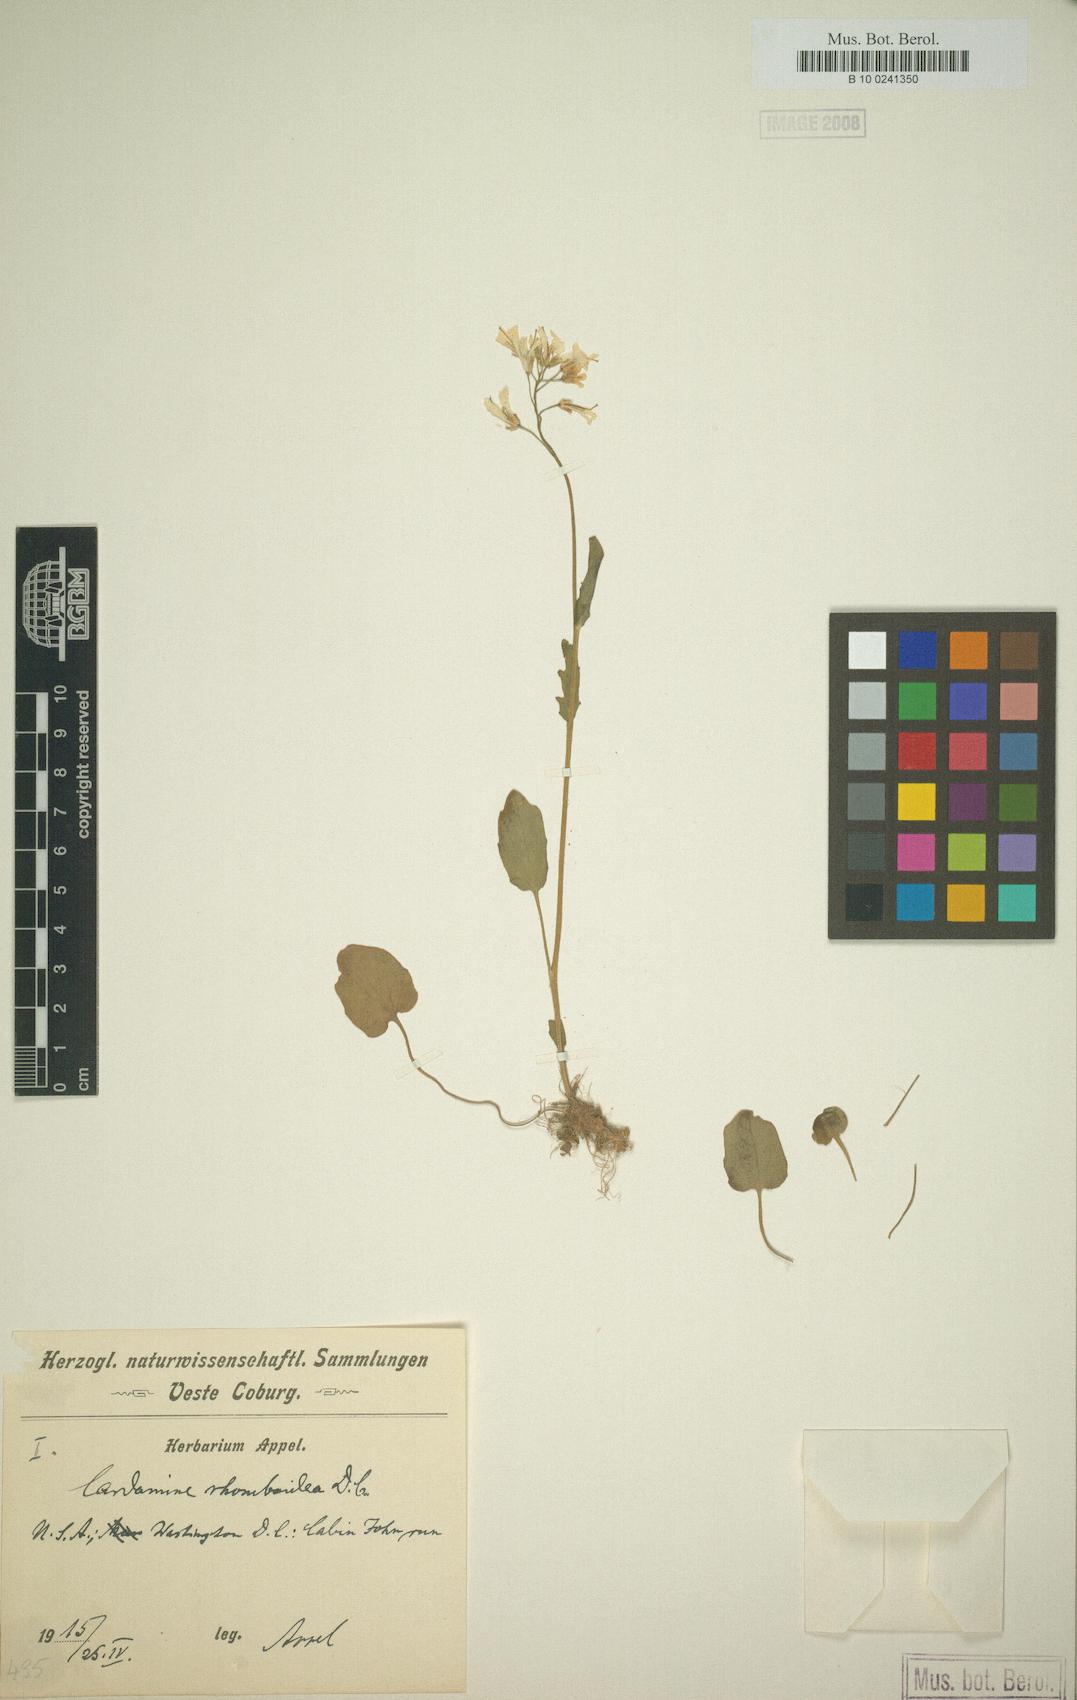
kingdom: Plantae
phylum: Tracheophyta
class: Magnoliopsida
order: Brassicales
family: Brassicaceae
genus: Cardamine
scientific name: Cardamine bulbosa
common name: Spring cress
